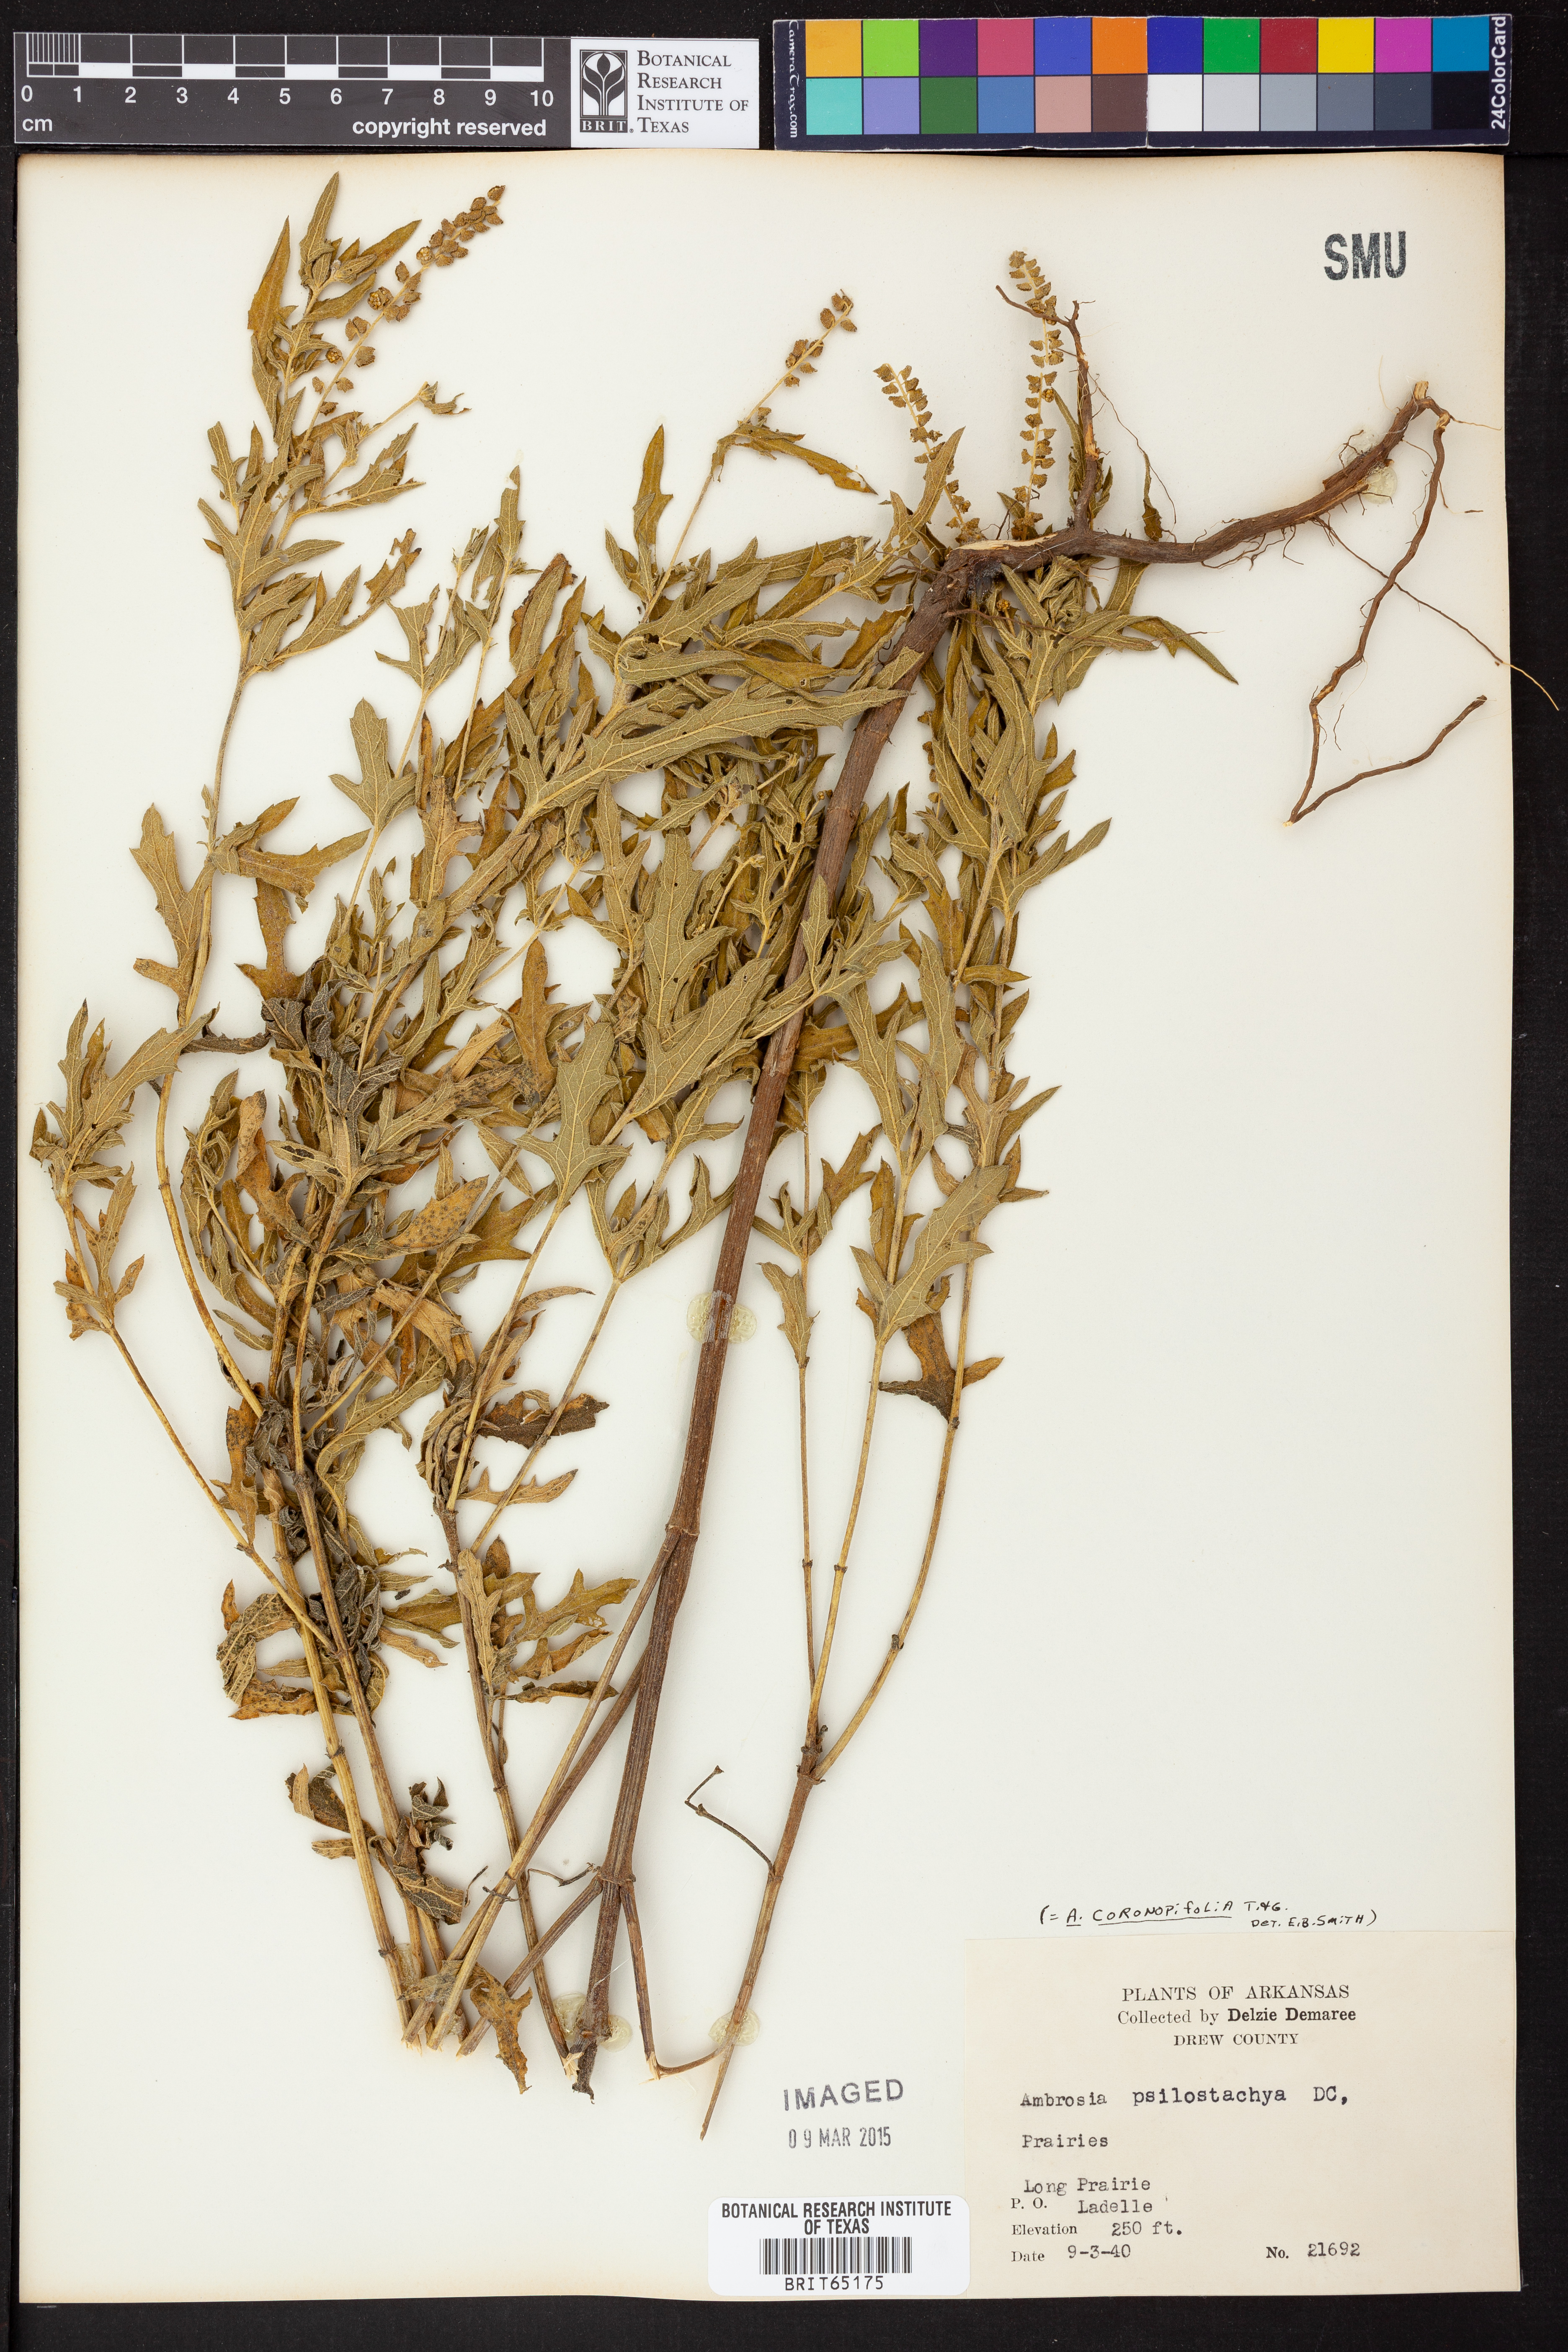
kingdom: Plantae
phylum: Tracheophyta
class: Magnoliopsida
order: Asterales
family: Asteraceae
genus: Ambrosia
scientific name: Ambrosia psilostachya
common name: Perennial ragweed
